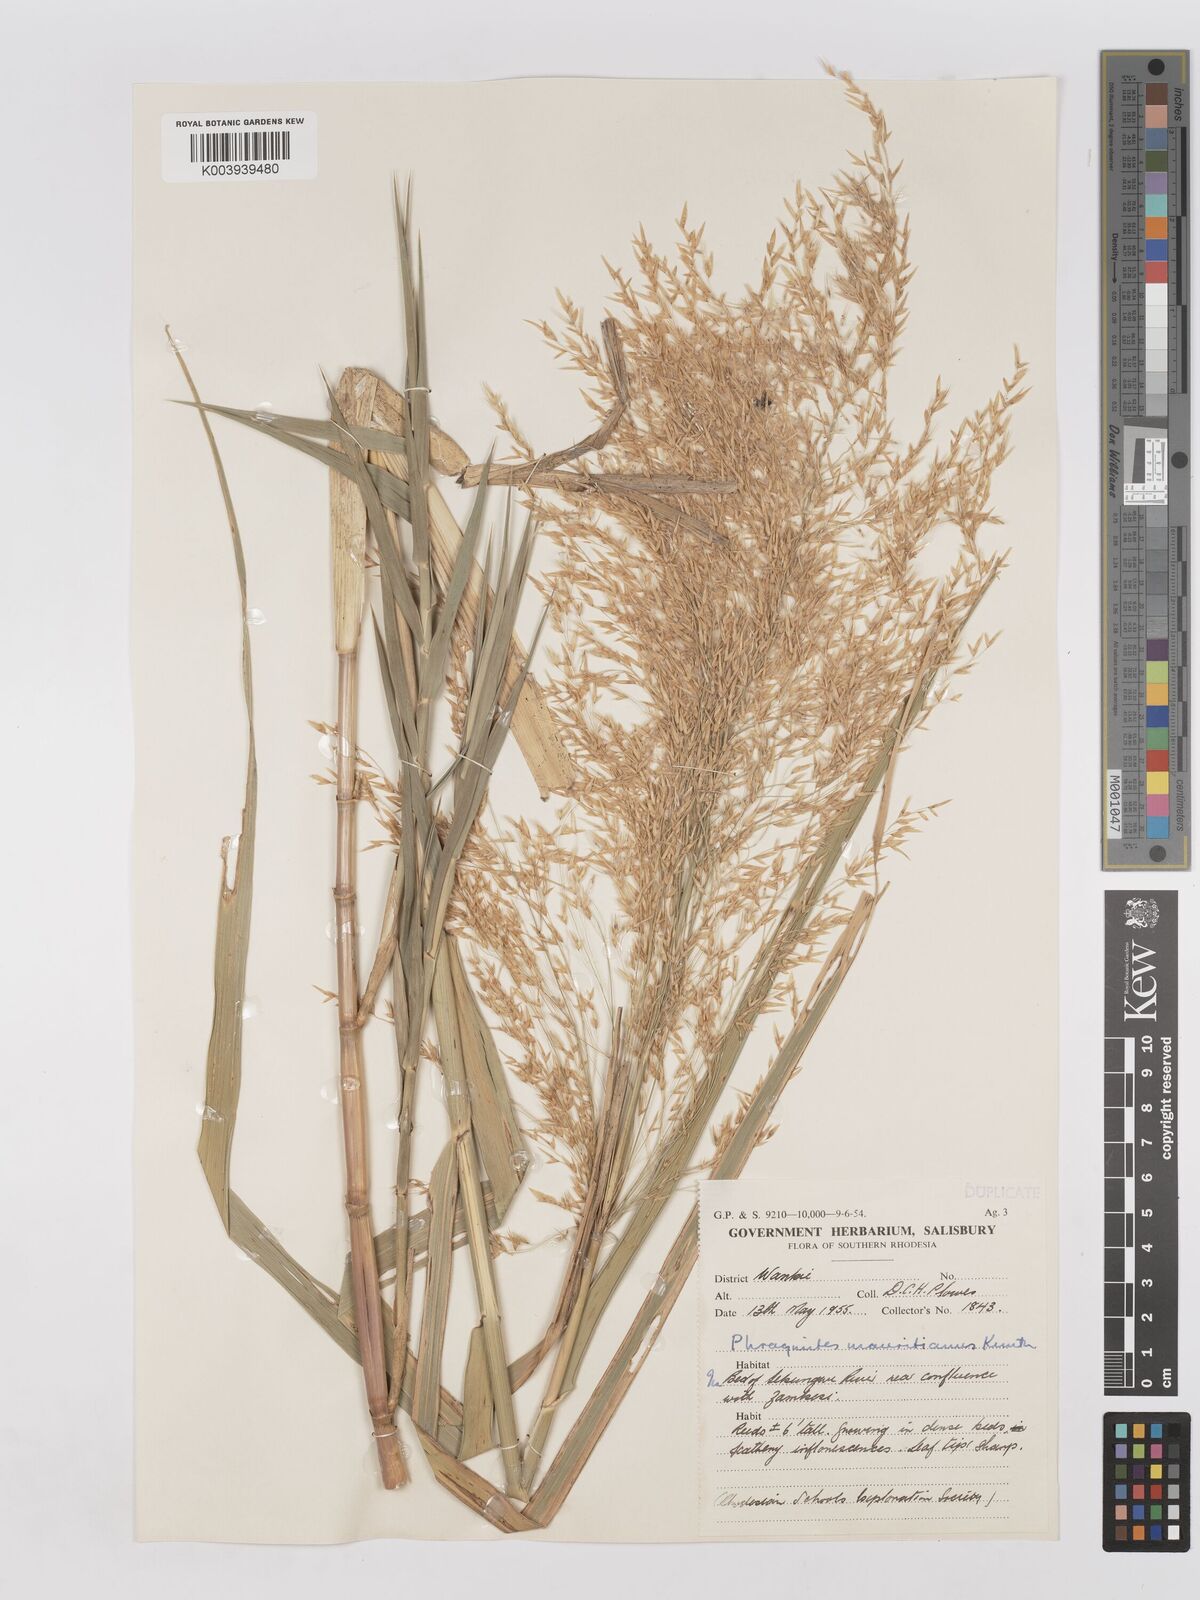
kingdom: Plantae
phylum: Tracheophyta
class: Liliopsida
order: Poales
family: Poaceae
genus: Phragmites
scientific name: Phragmites mauritianus
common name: Reed grass
